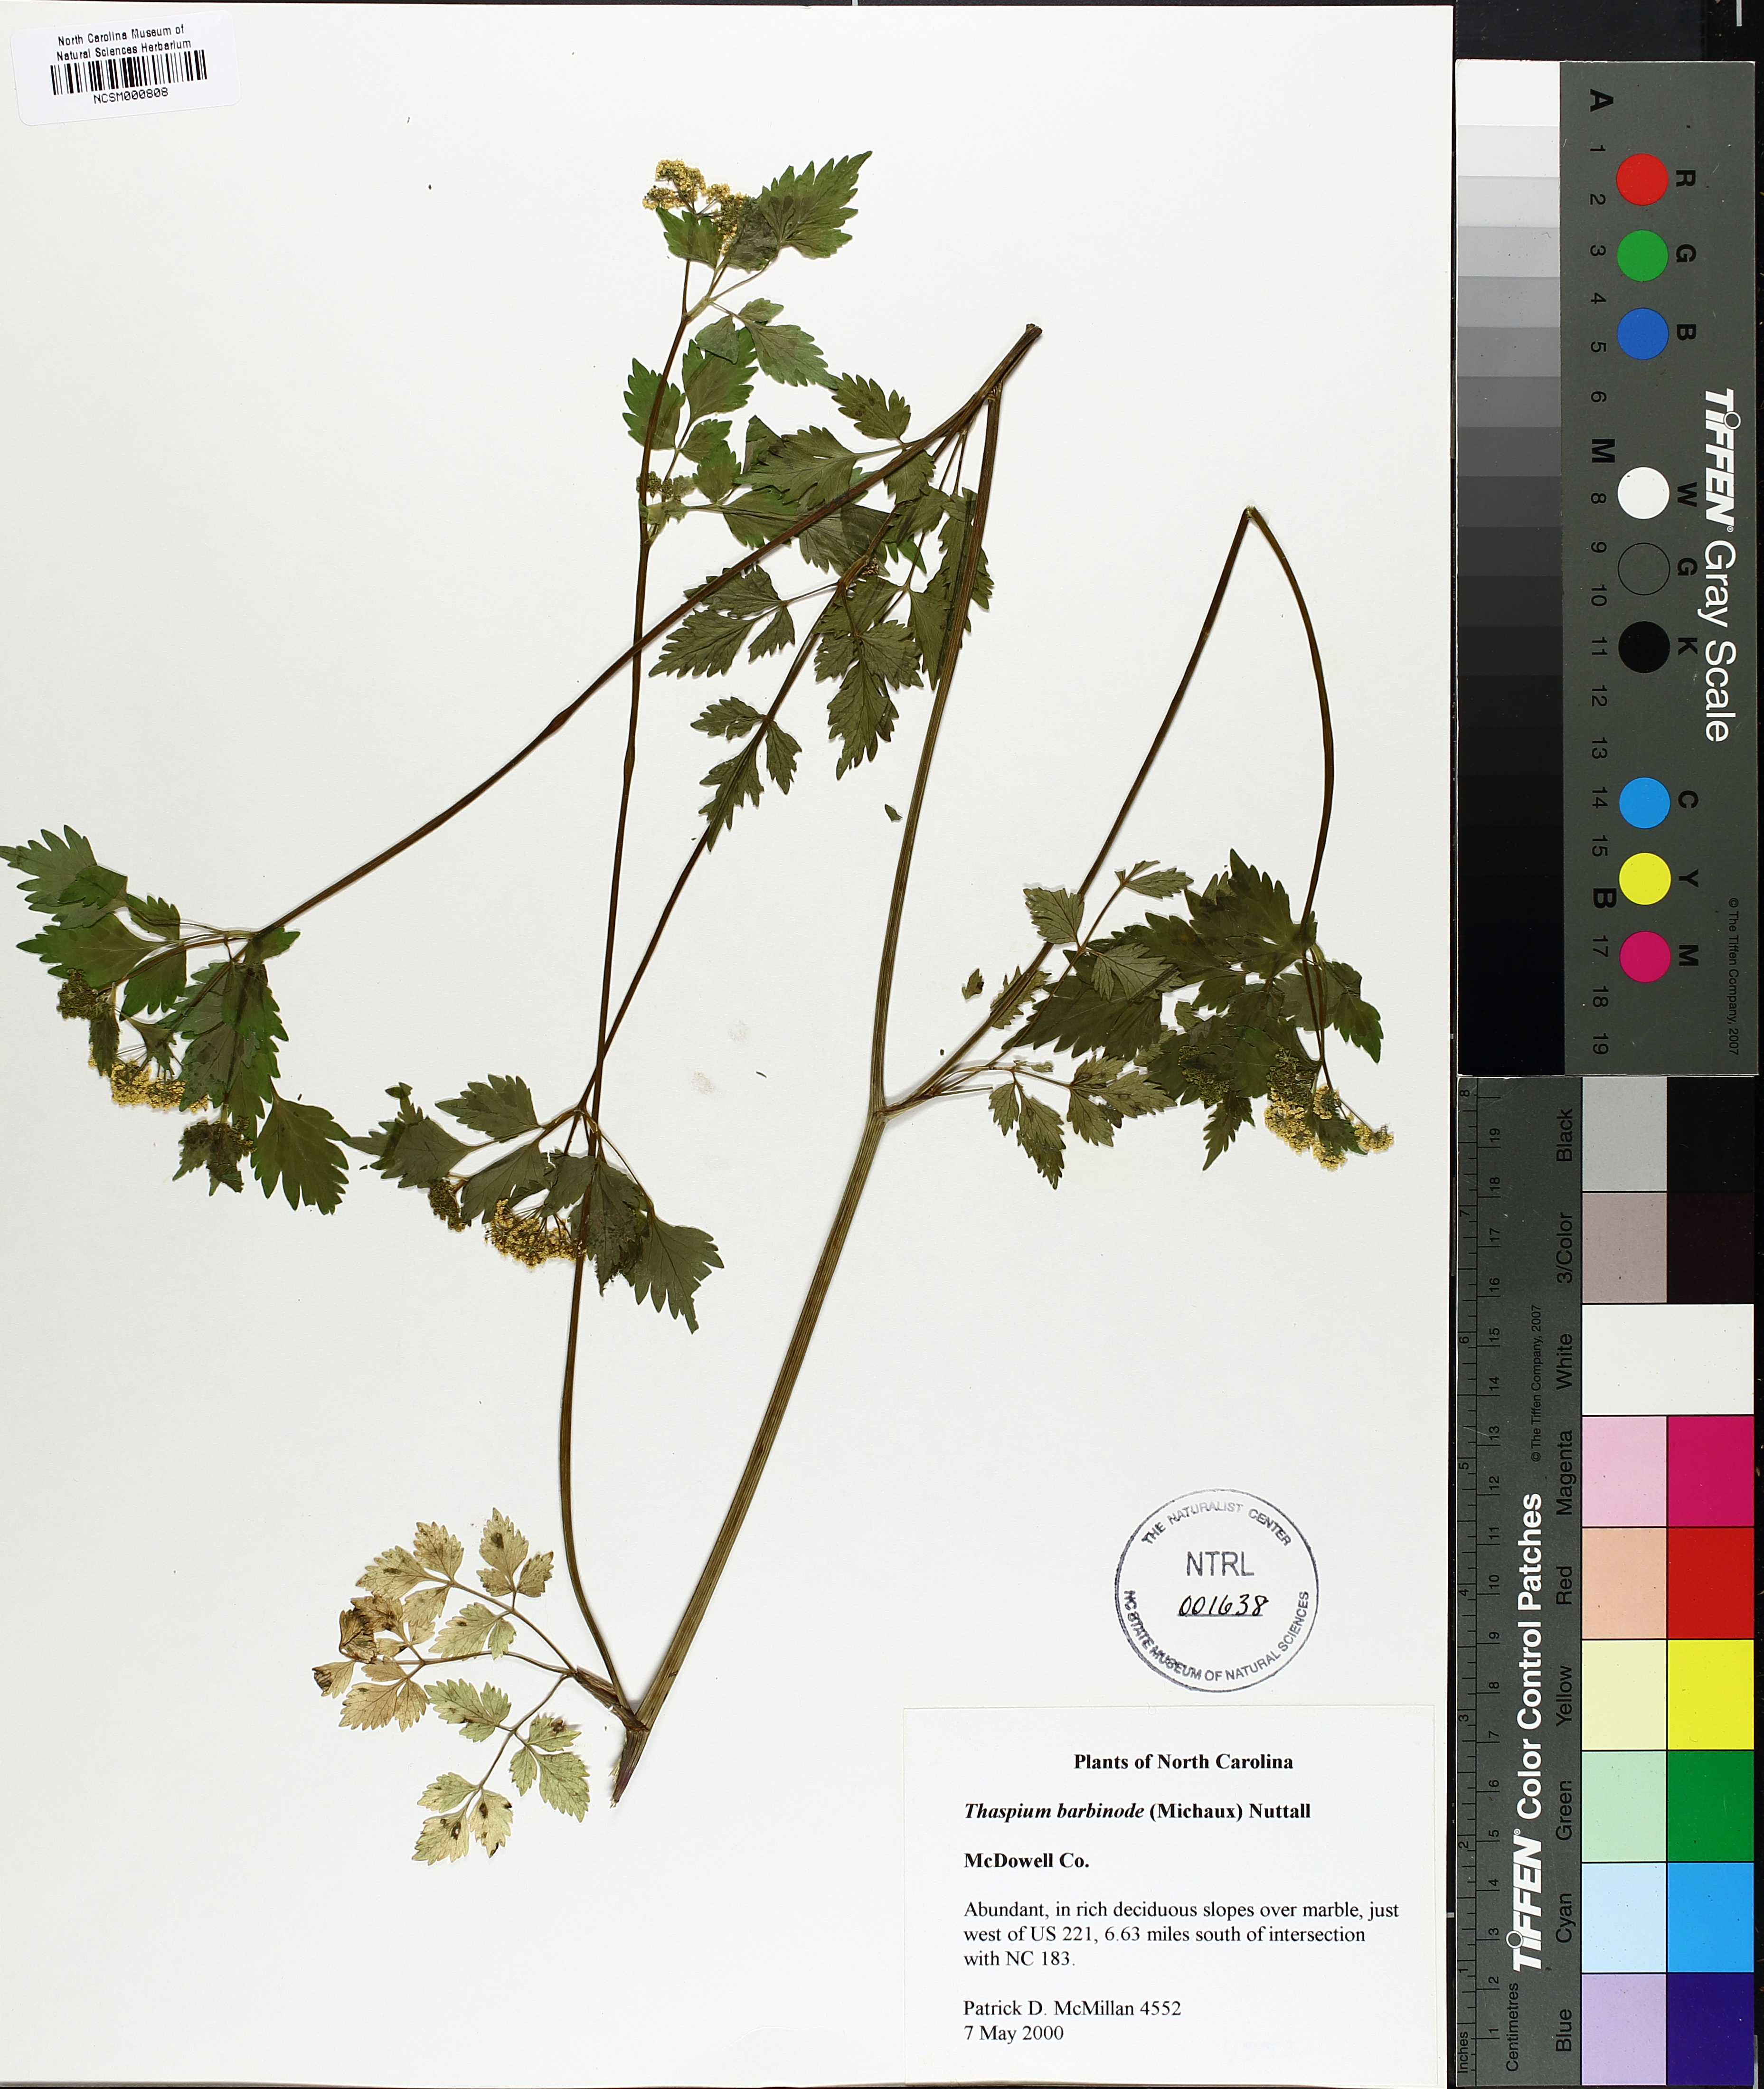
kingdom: Plantae
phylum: Tracheophyta
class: Magnoliopsida
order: Apiales
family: Apiaceae
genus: Thaspium
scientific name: Thaspium barbinode
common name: Bearded meadow-parsnip
